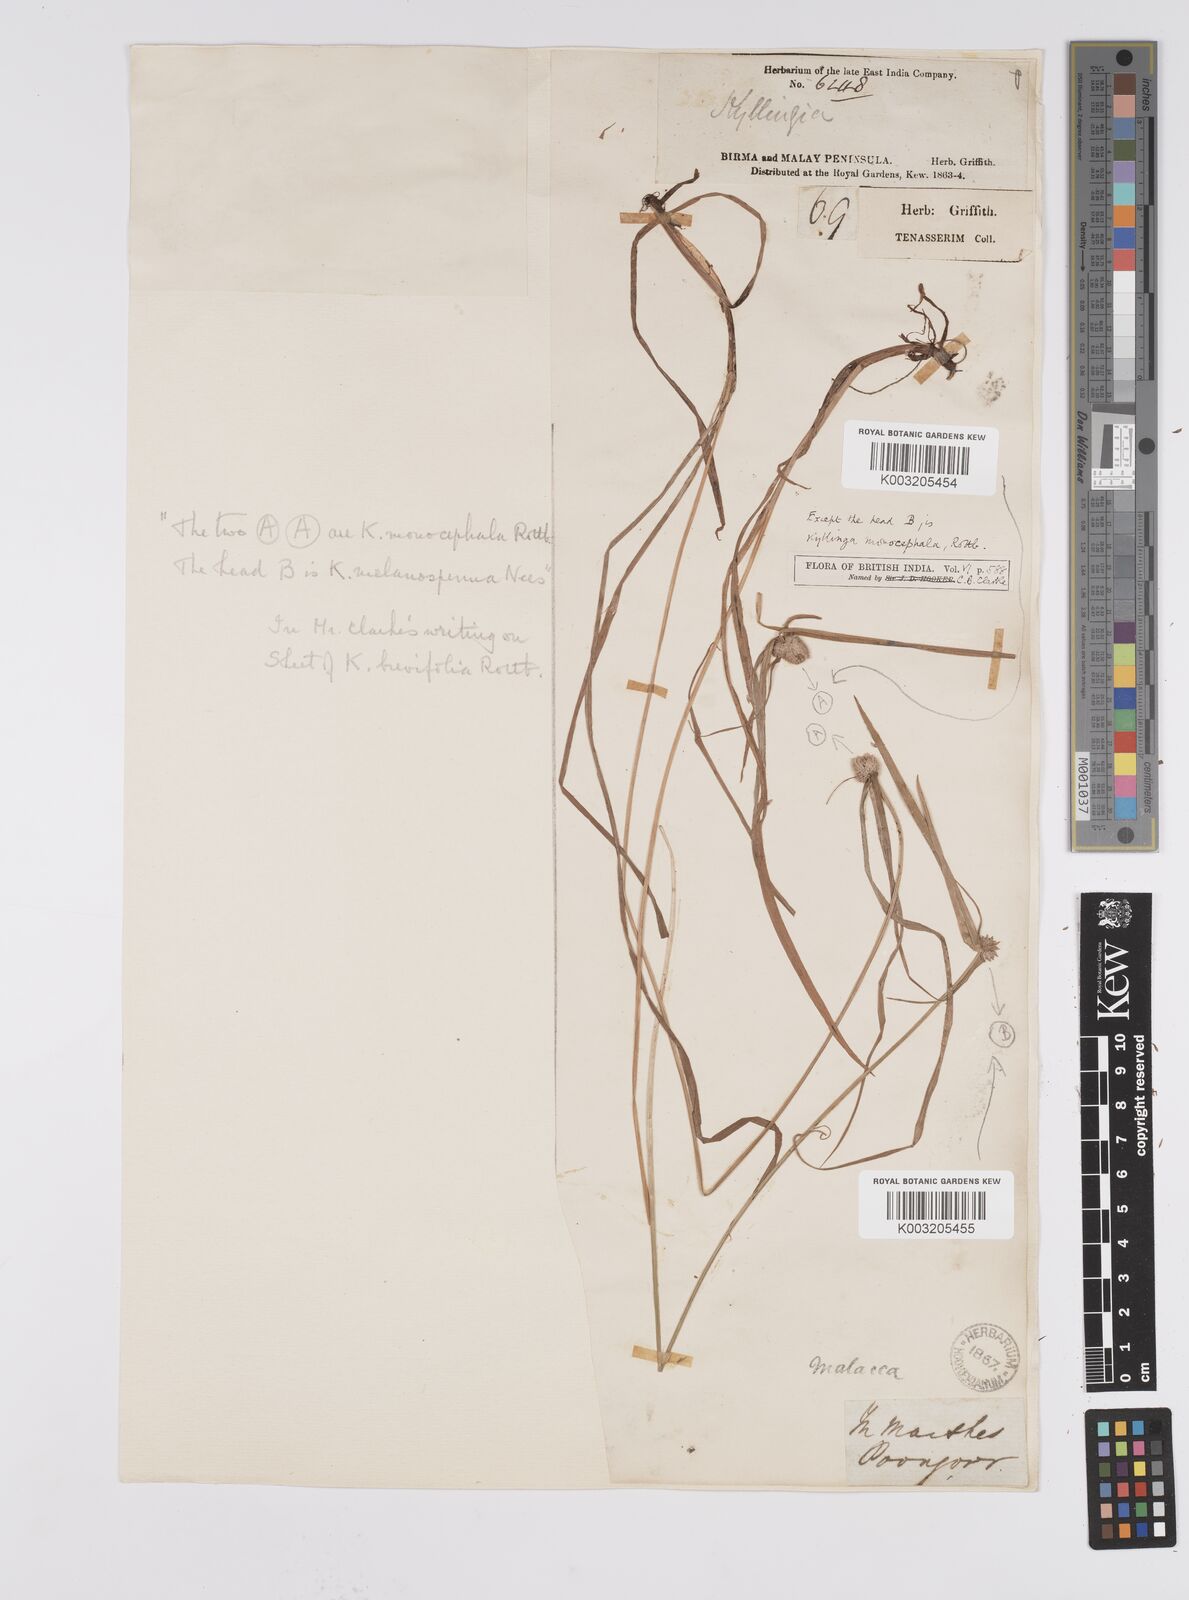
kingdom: Plantae
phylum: Tracheophyta
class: Liliopsida
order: Poales
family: Cyperaceae
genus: Cyperus
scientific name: Cyperus nemoralis
